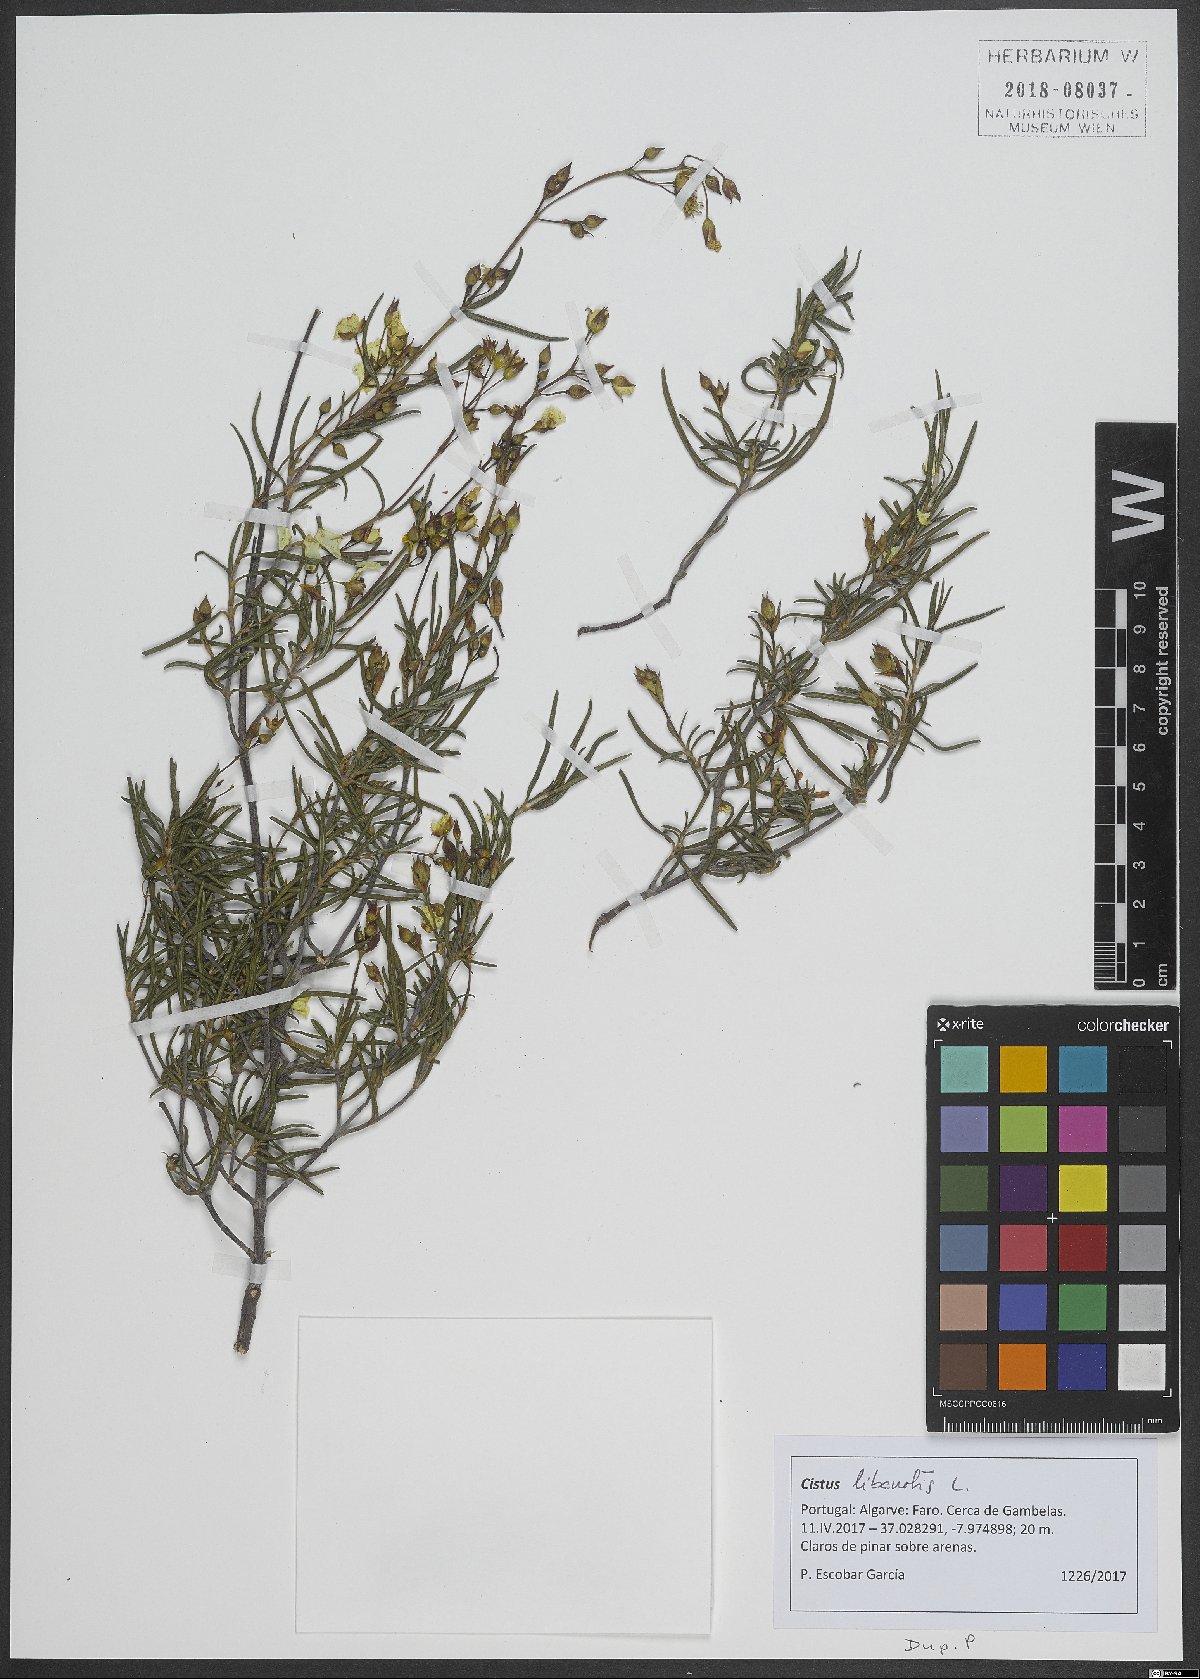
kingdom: Plantae
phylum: Tracheophyta
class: Magnoliopsida
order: Malvales
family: Cistaceae
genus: Cistus
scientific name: Cistus libanotis
